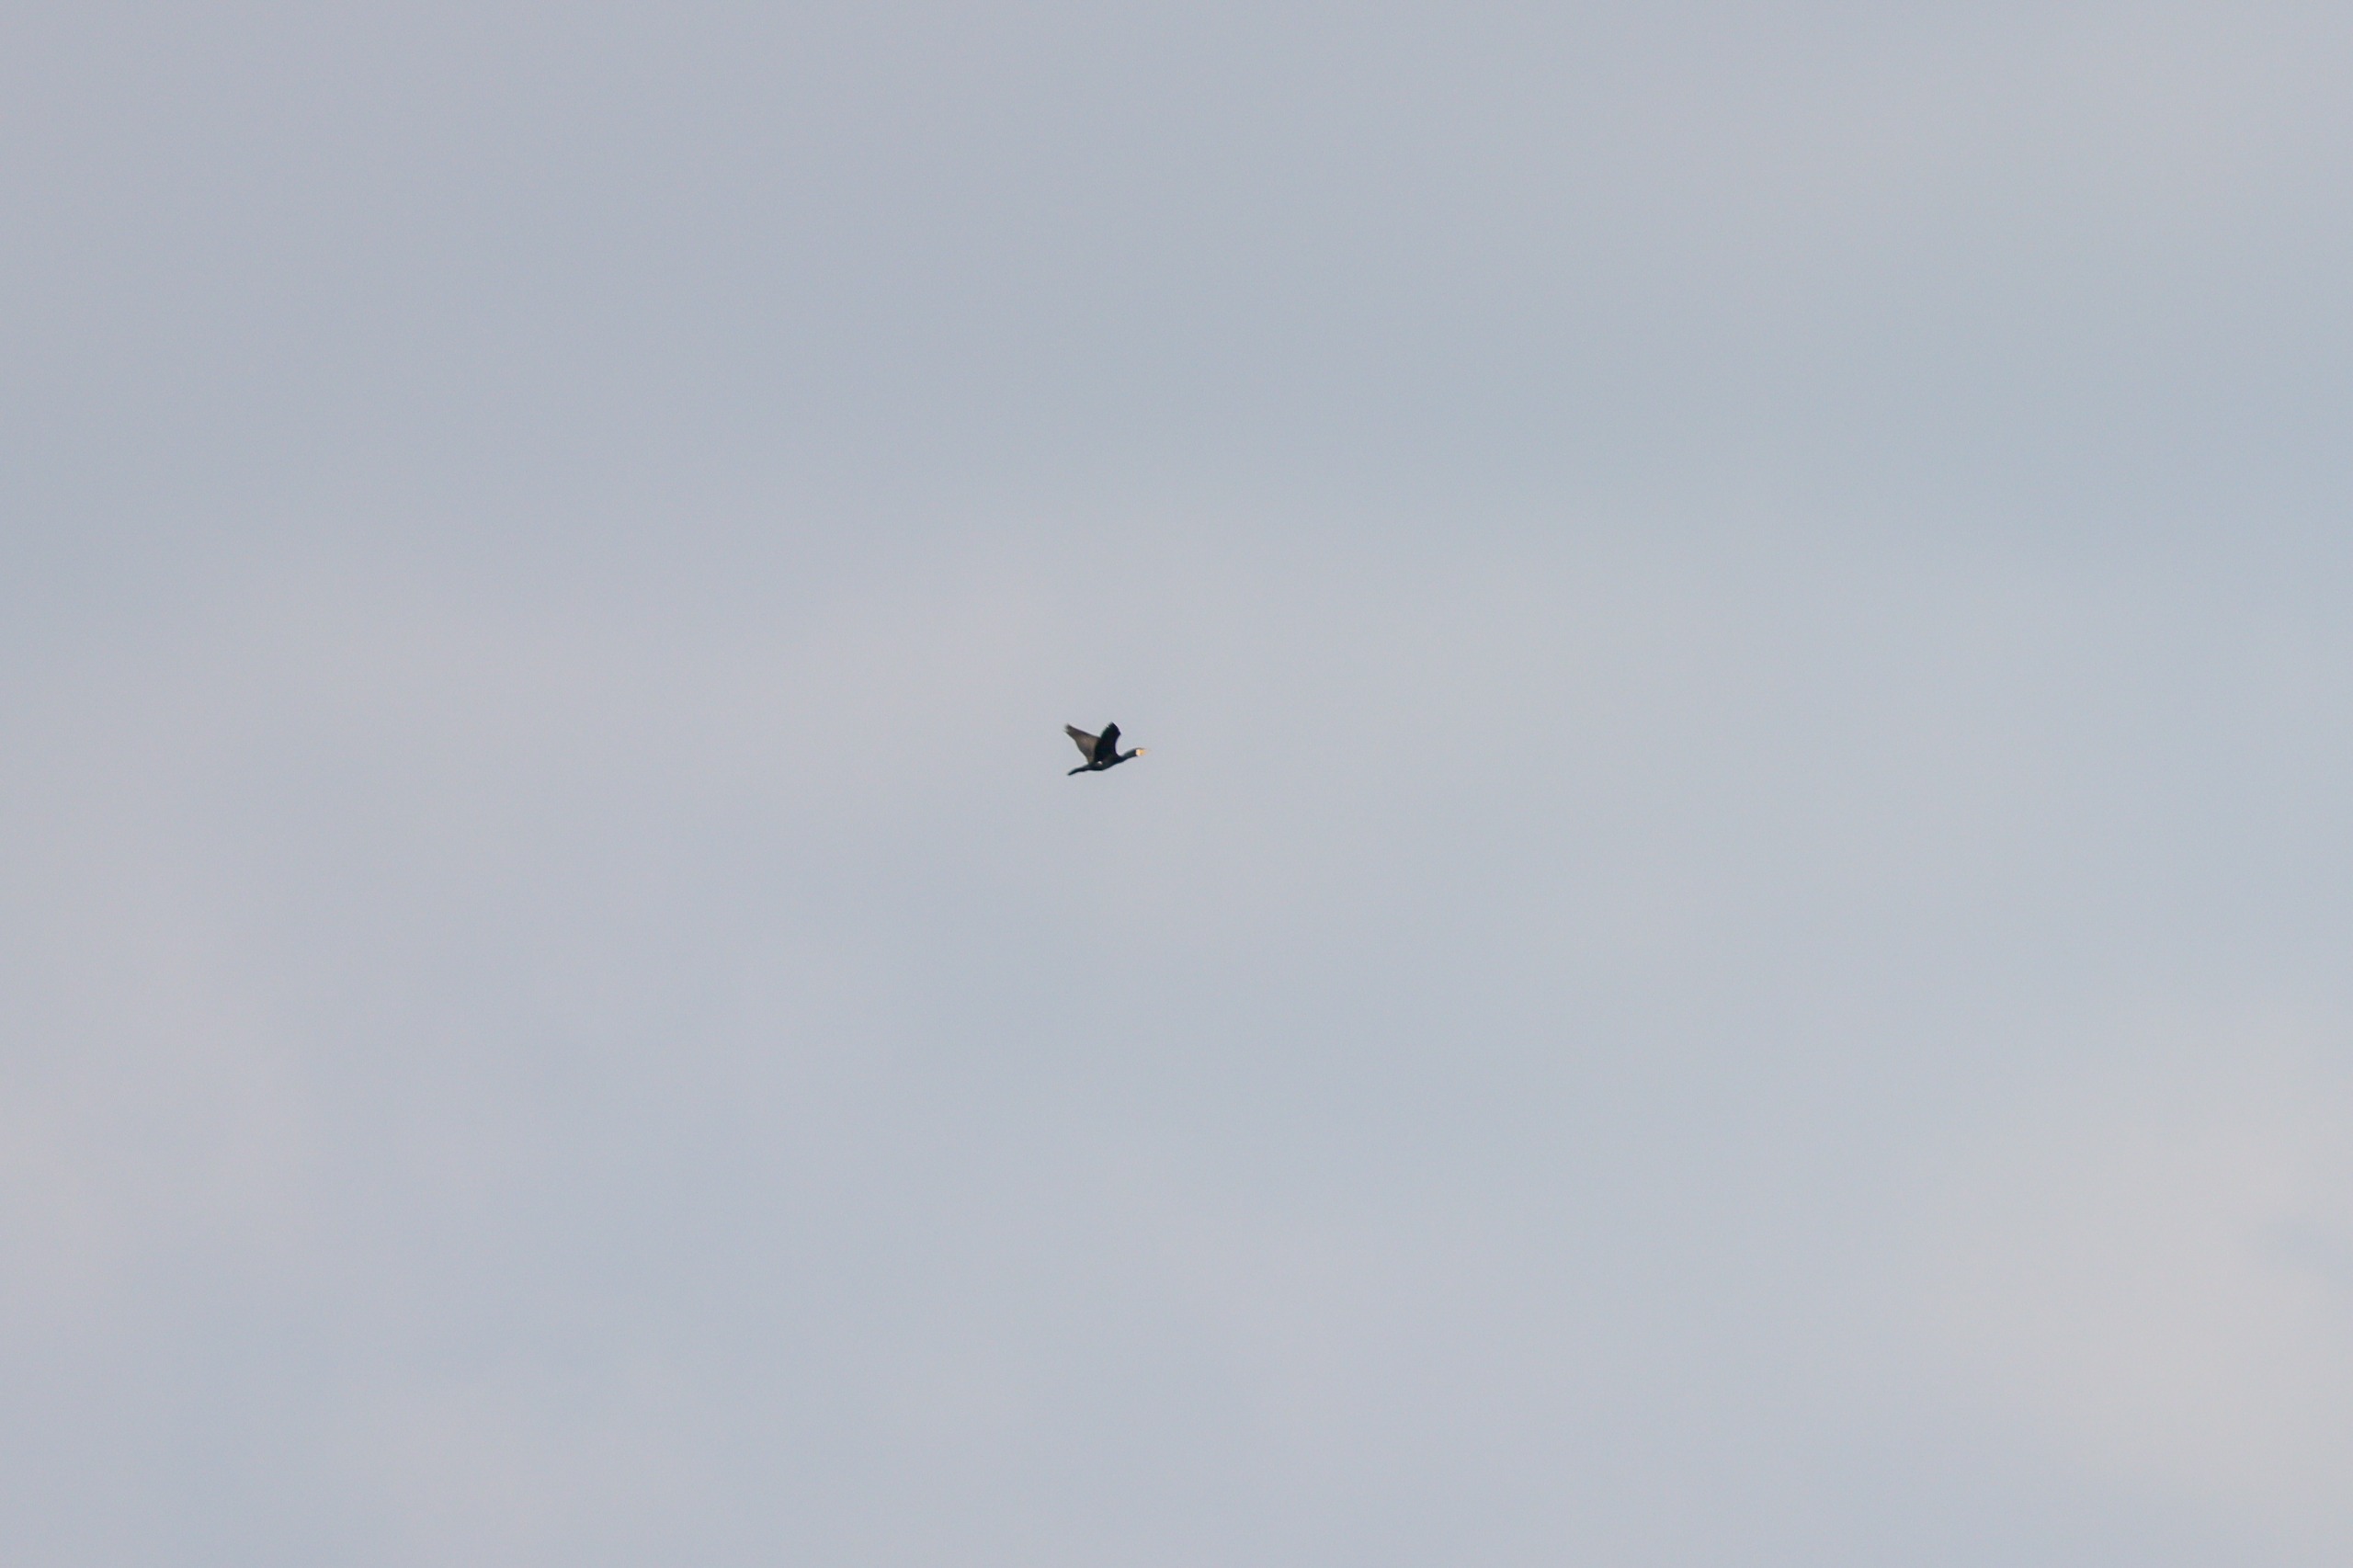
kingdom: Animalia
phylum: Chordata
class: Aves
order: Suliformes
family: Phalacrocoracidae
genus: Phalacrocorax
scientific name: Phalacrocorax carbo
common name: Skarv
